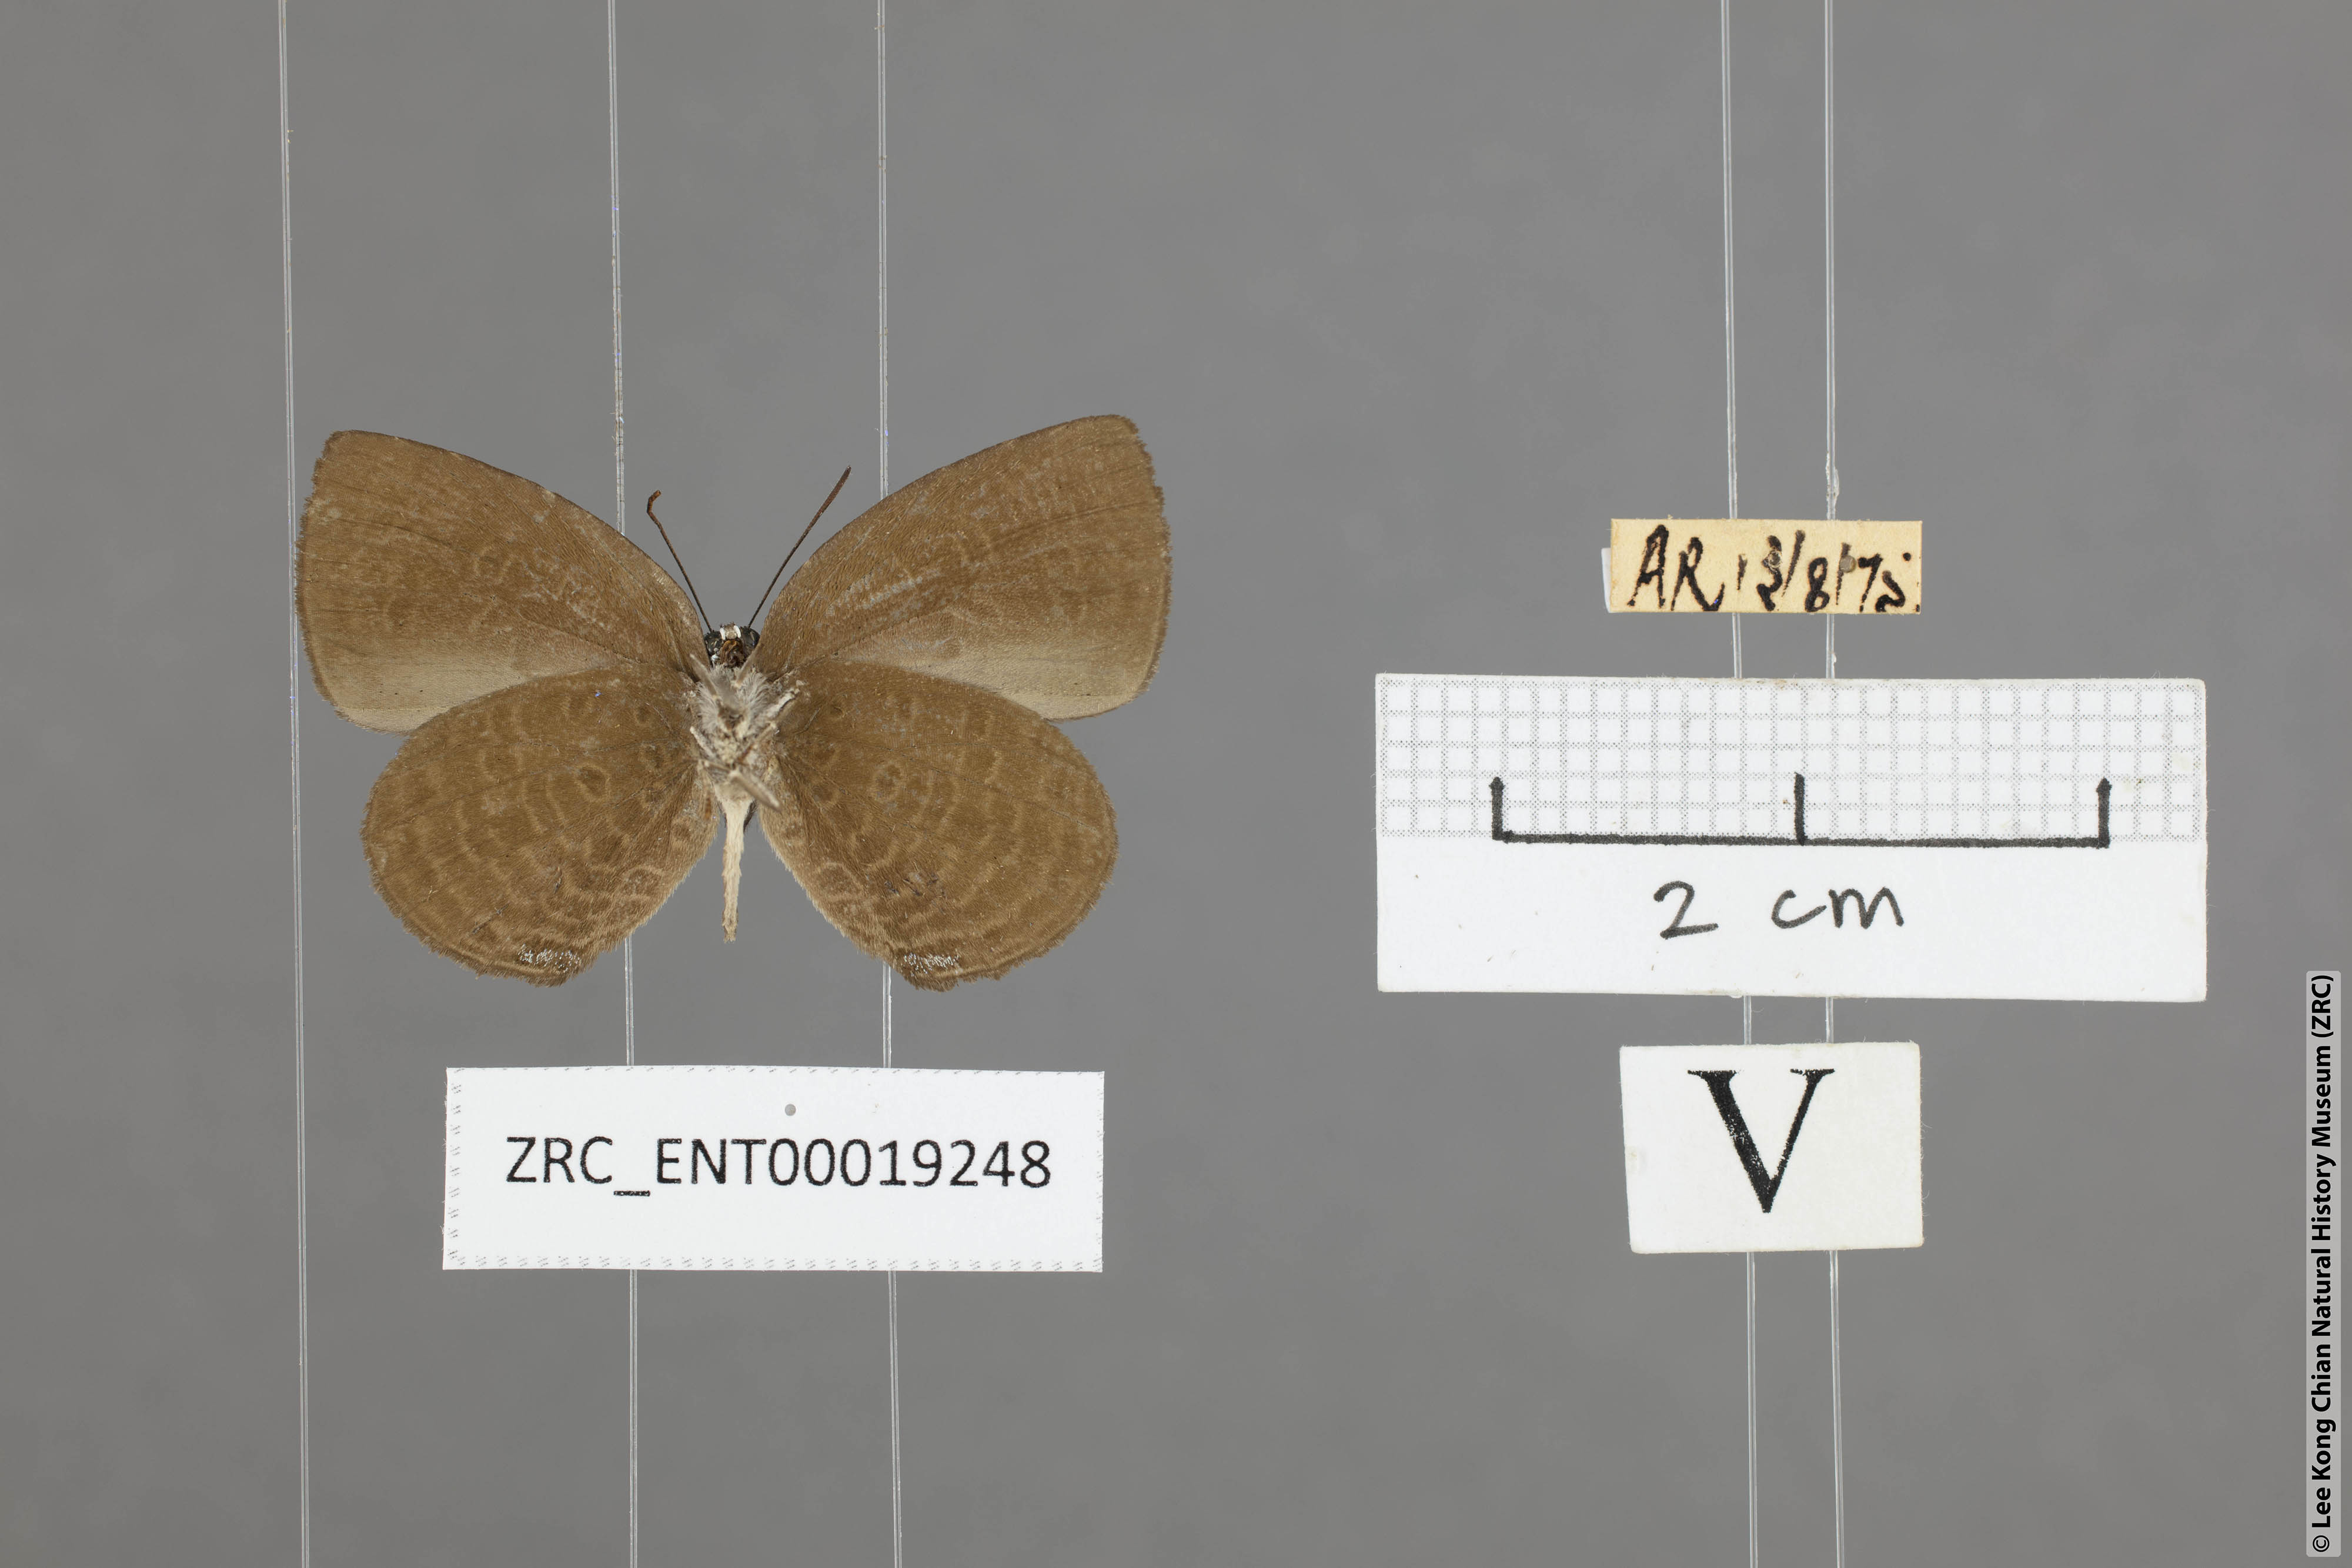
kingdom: Animalia
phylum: Arthropoda
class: Insecta
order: Lepidoptera
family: Lycaenidae
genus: Arhopala
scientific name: Arhopala avatha
